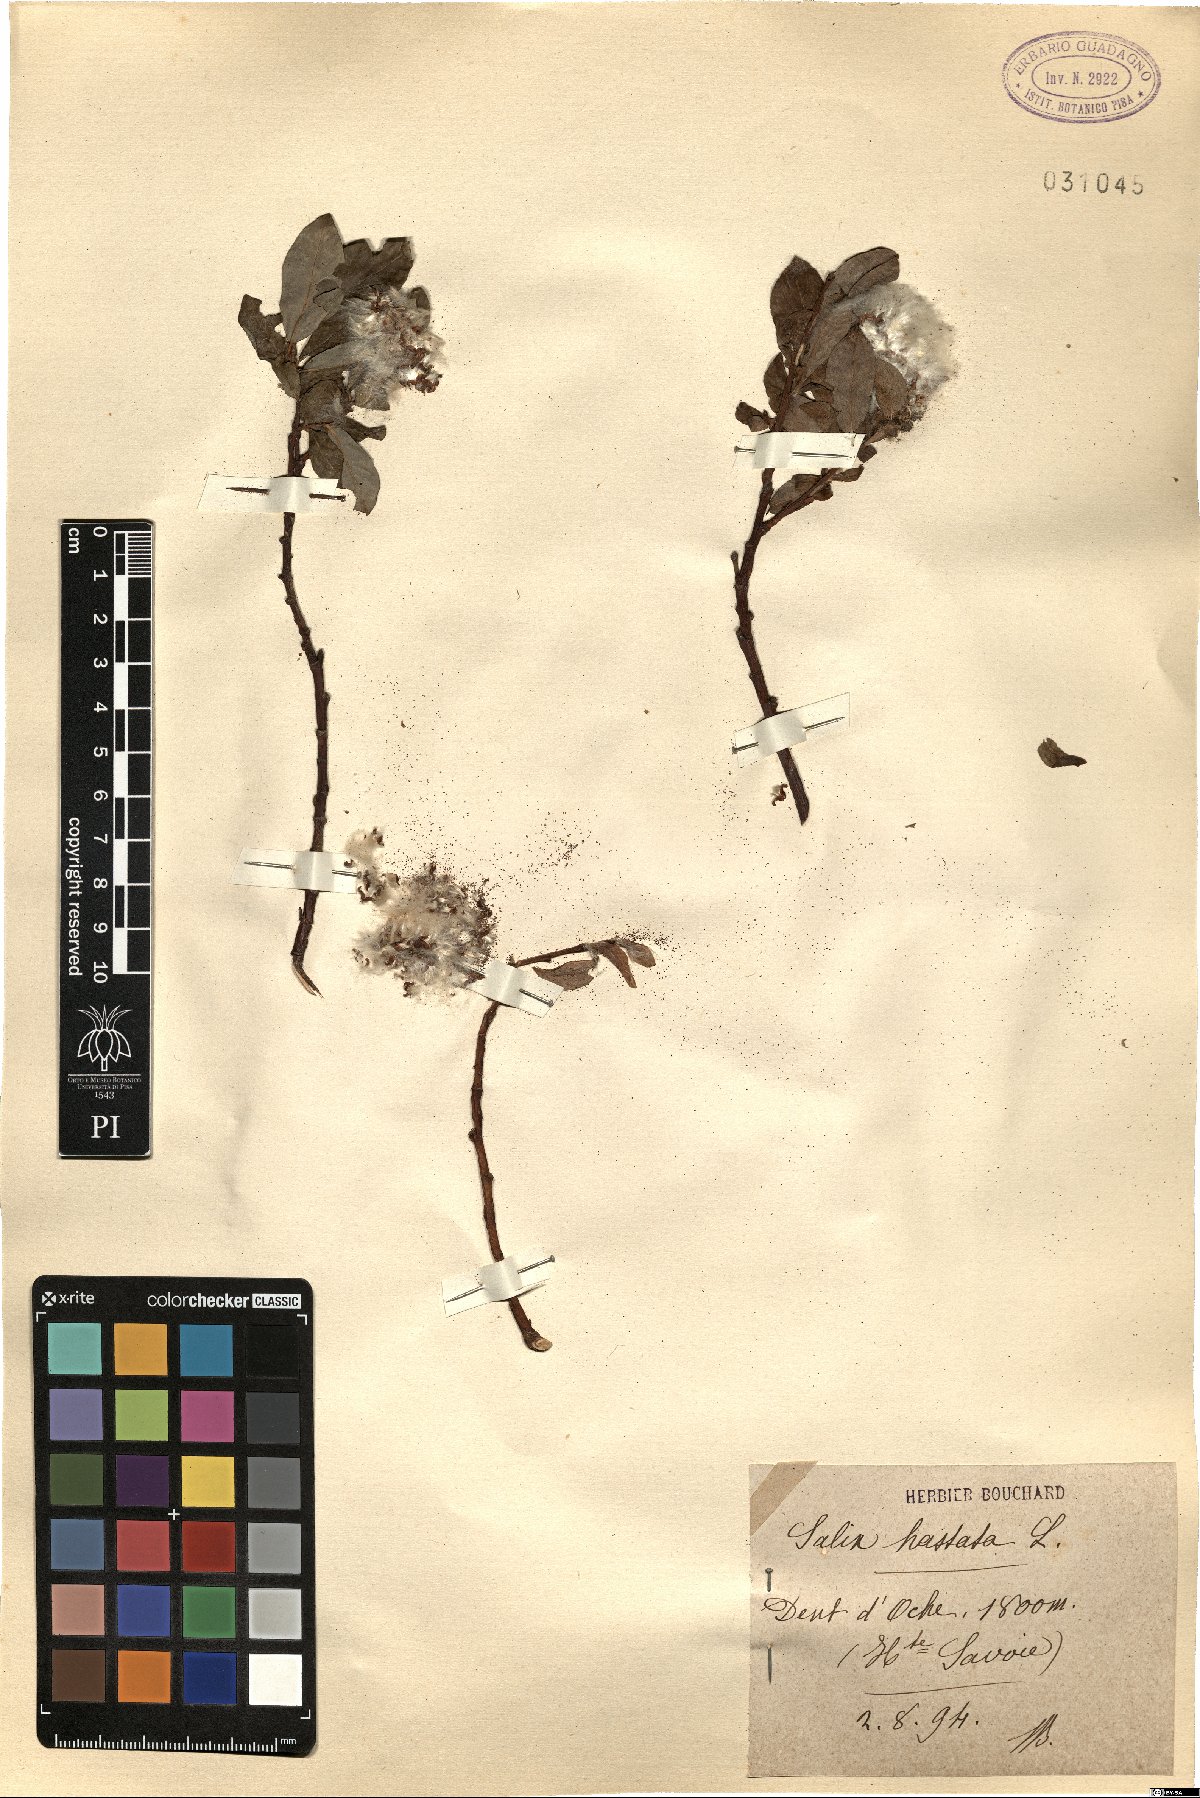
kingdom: Plantae
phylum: Tracheophyta
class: Magnoliopsida
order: Malpighiales
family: Salicaceae
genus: Salix
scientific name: Salix hastata
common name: Halberd willow
